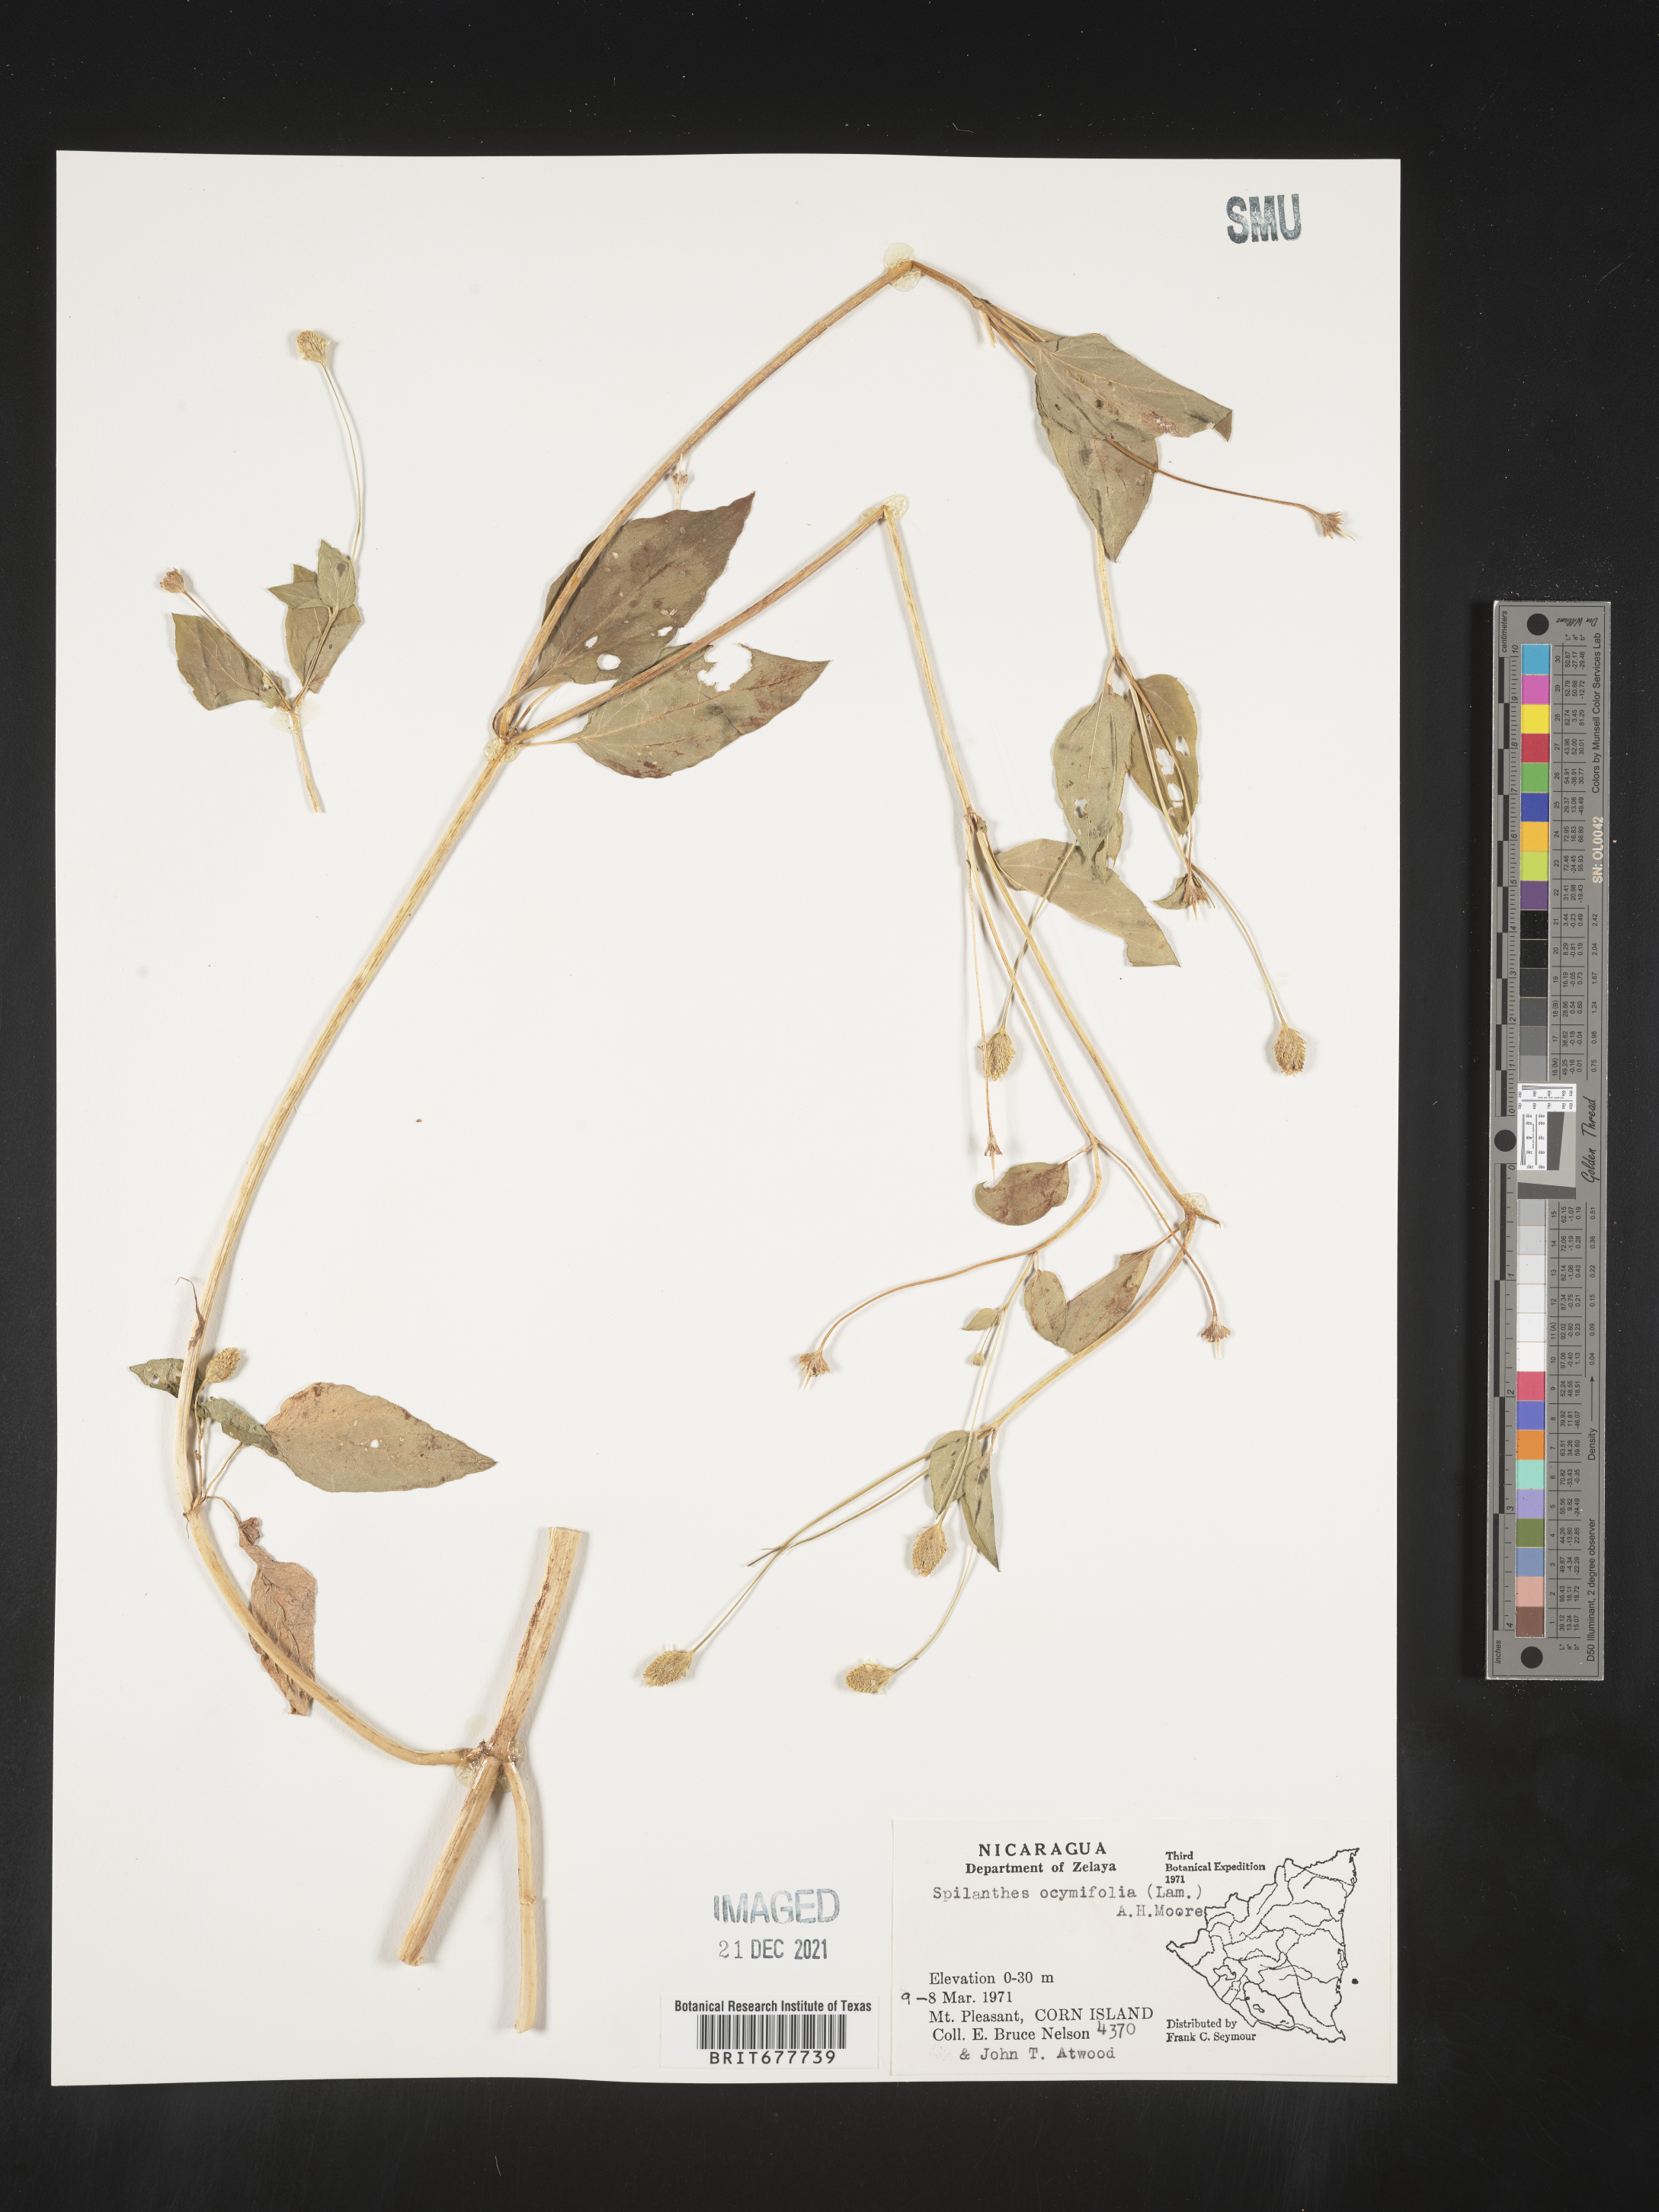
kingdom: Plantae
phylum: Tracheophyta
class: Magnoliopsida
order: Asterales
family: Asteraceae
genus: Spilanthes
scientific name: Spilanthes
